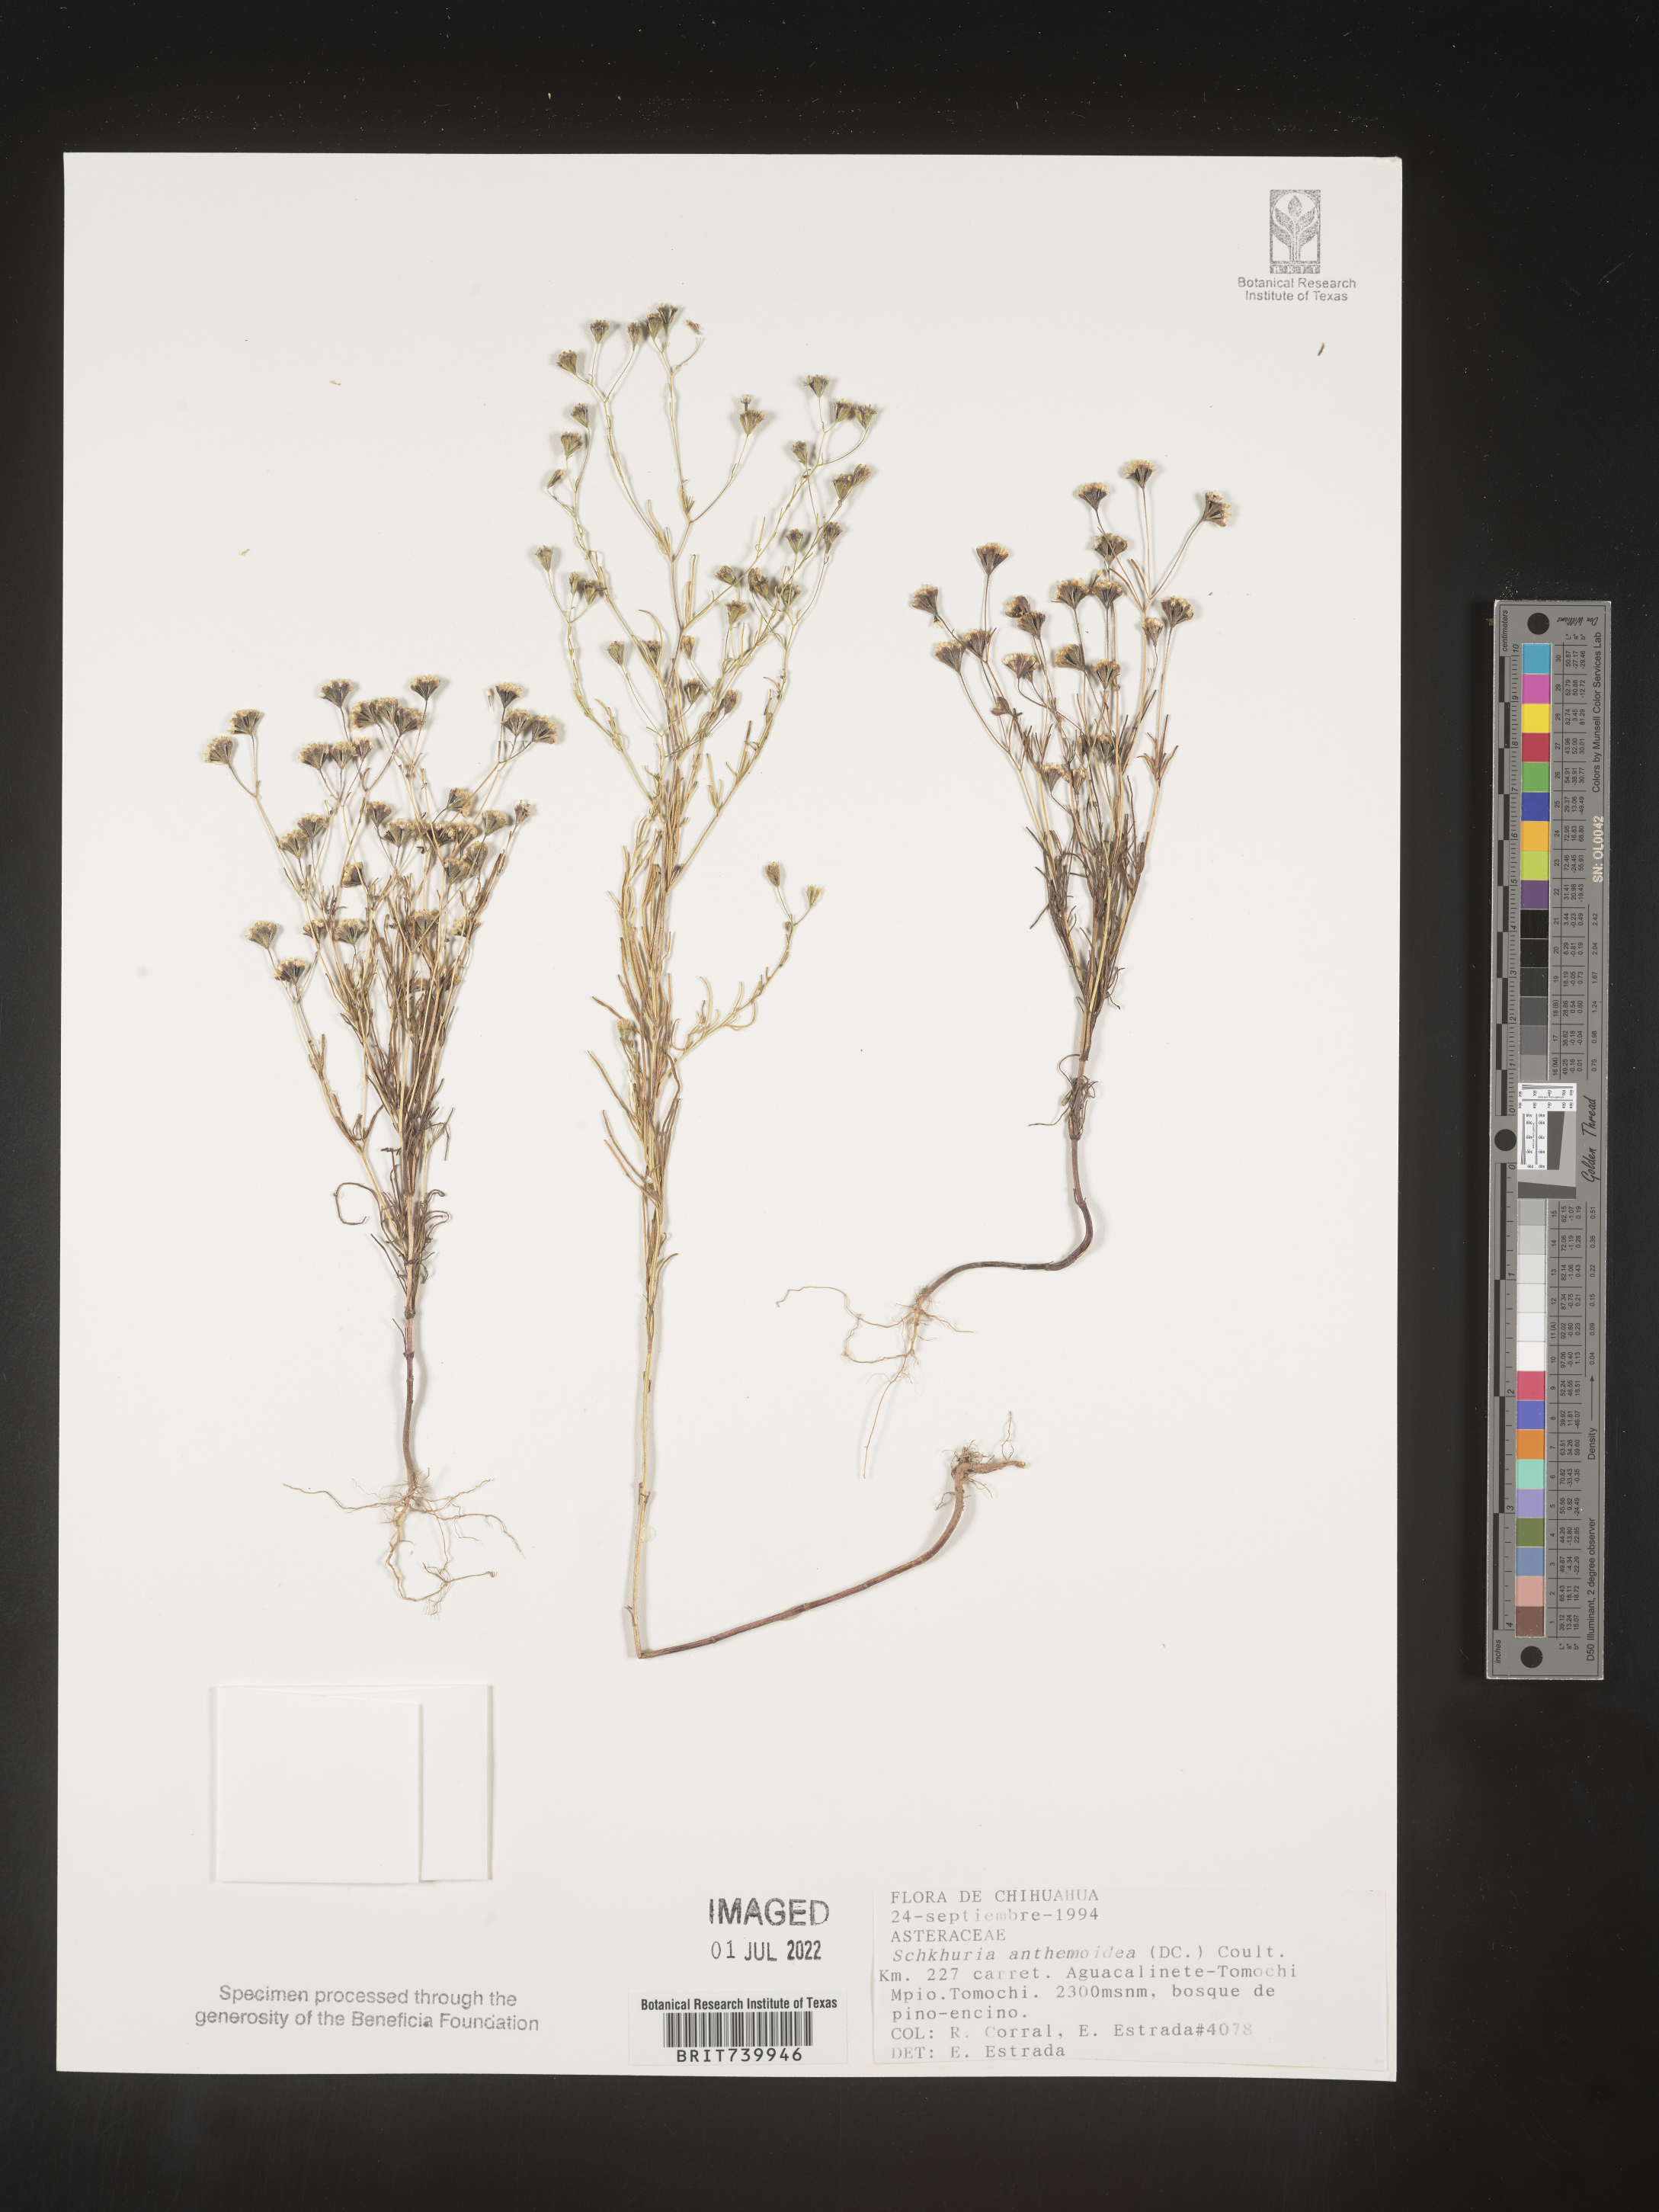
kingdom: Plantae
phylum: Tracheophyta
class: Magnoliopsida
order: Asterales
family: Asteraceae
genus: Schkuhria
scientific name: Schkuhria
